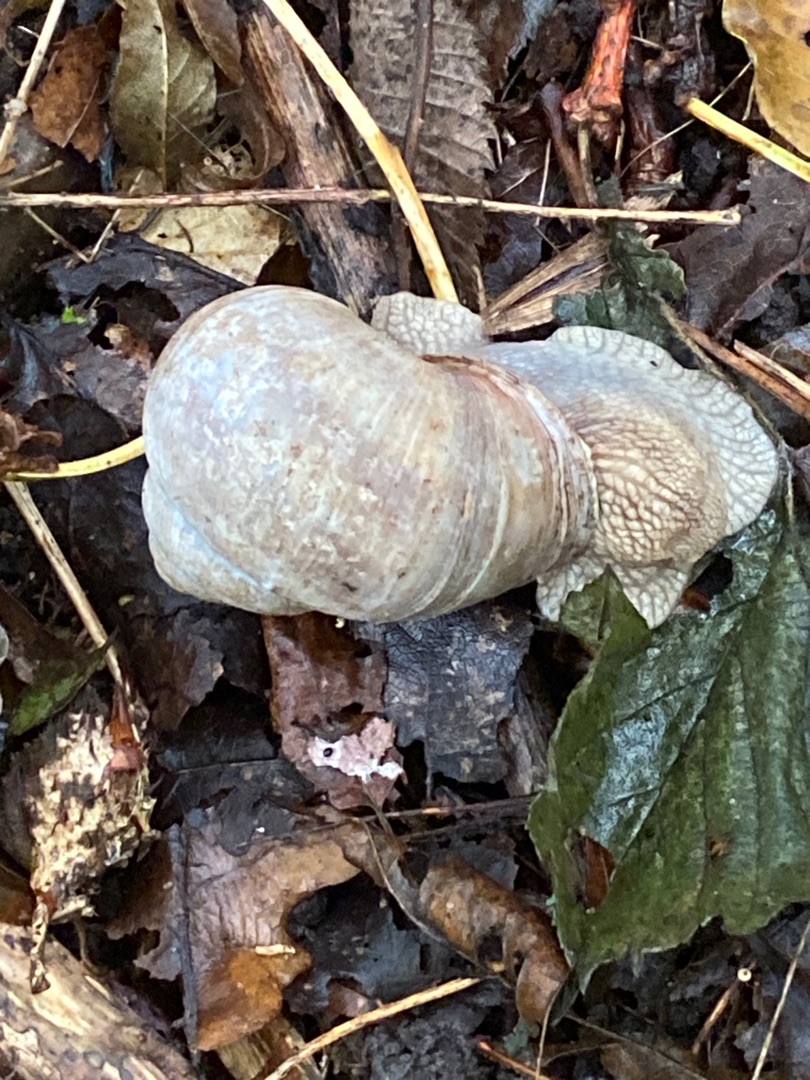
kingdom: Animalia
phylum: Mollusca
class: Gastropoda
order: Stylommatophora
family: Helicidae
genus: Helix
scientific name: Helix pomatia
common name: Vinbjergsnegl
